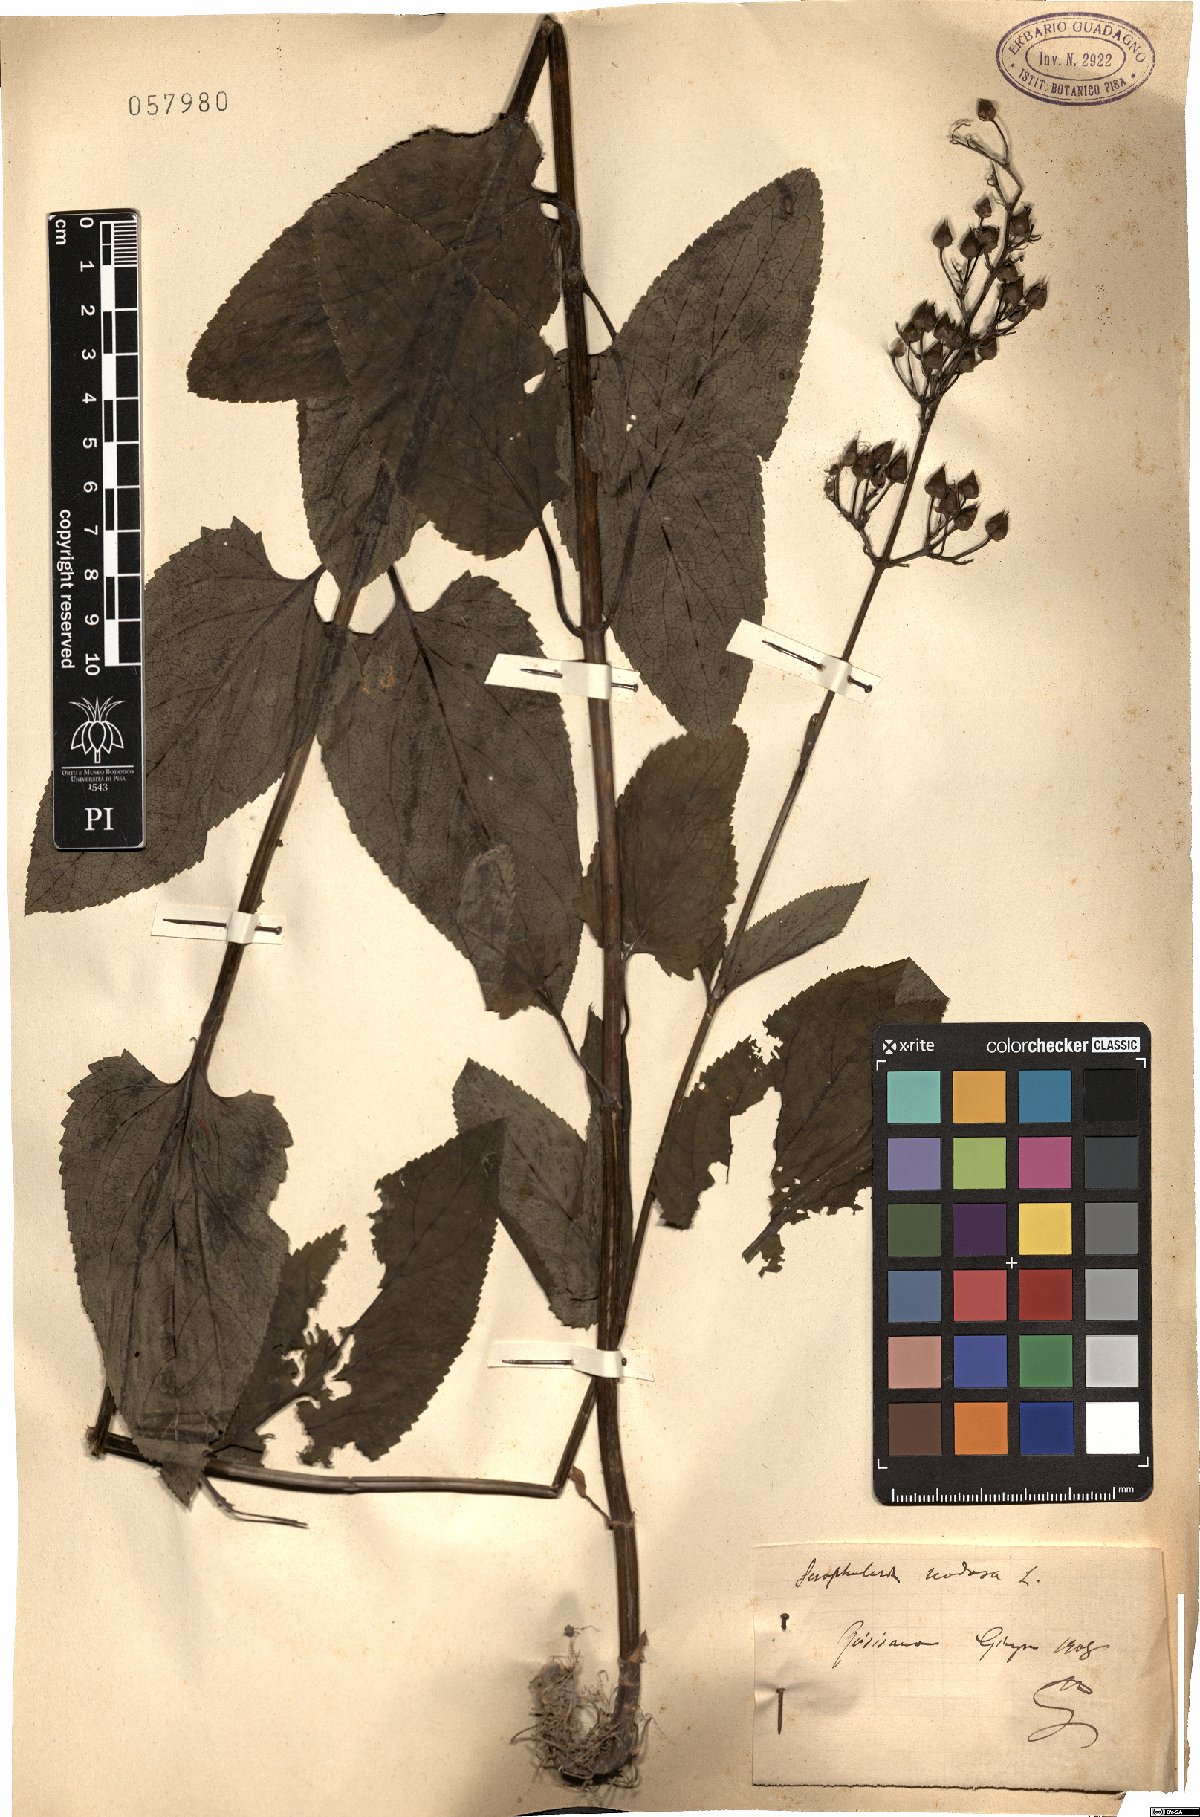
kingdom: Plantae
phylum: Tracheophyta
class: Magnoliopsida
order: Lamiales
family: Scrophulariaceae
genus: Scrophularia
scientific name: Scrophularia nodosa
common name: Common figwort
